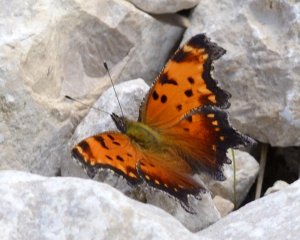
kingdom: Animalia
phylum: Arthropoda
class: Insecta
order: Lepidoptera
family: Nymphalidae
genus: Polygonia
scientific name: Polygonia progne
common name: Gray Comma
